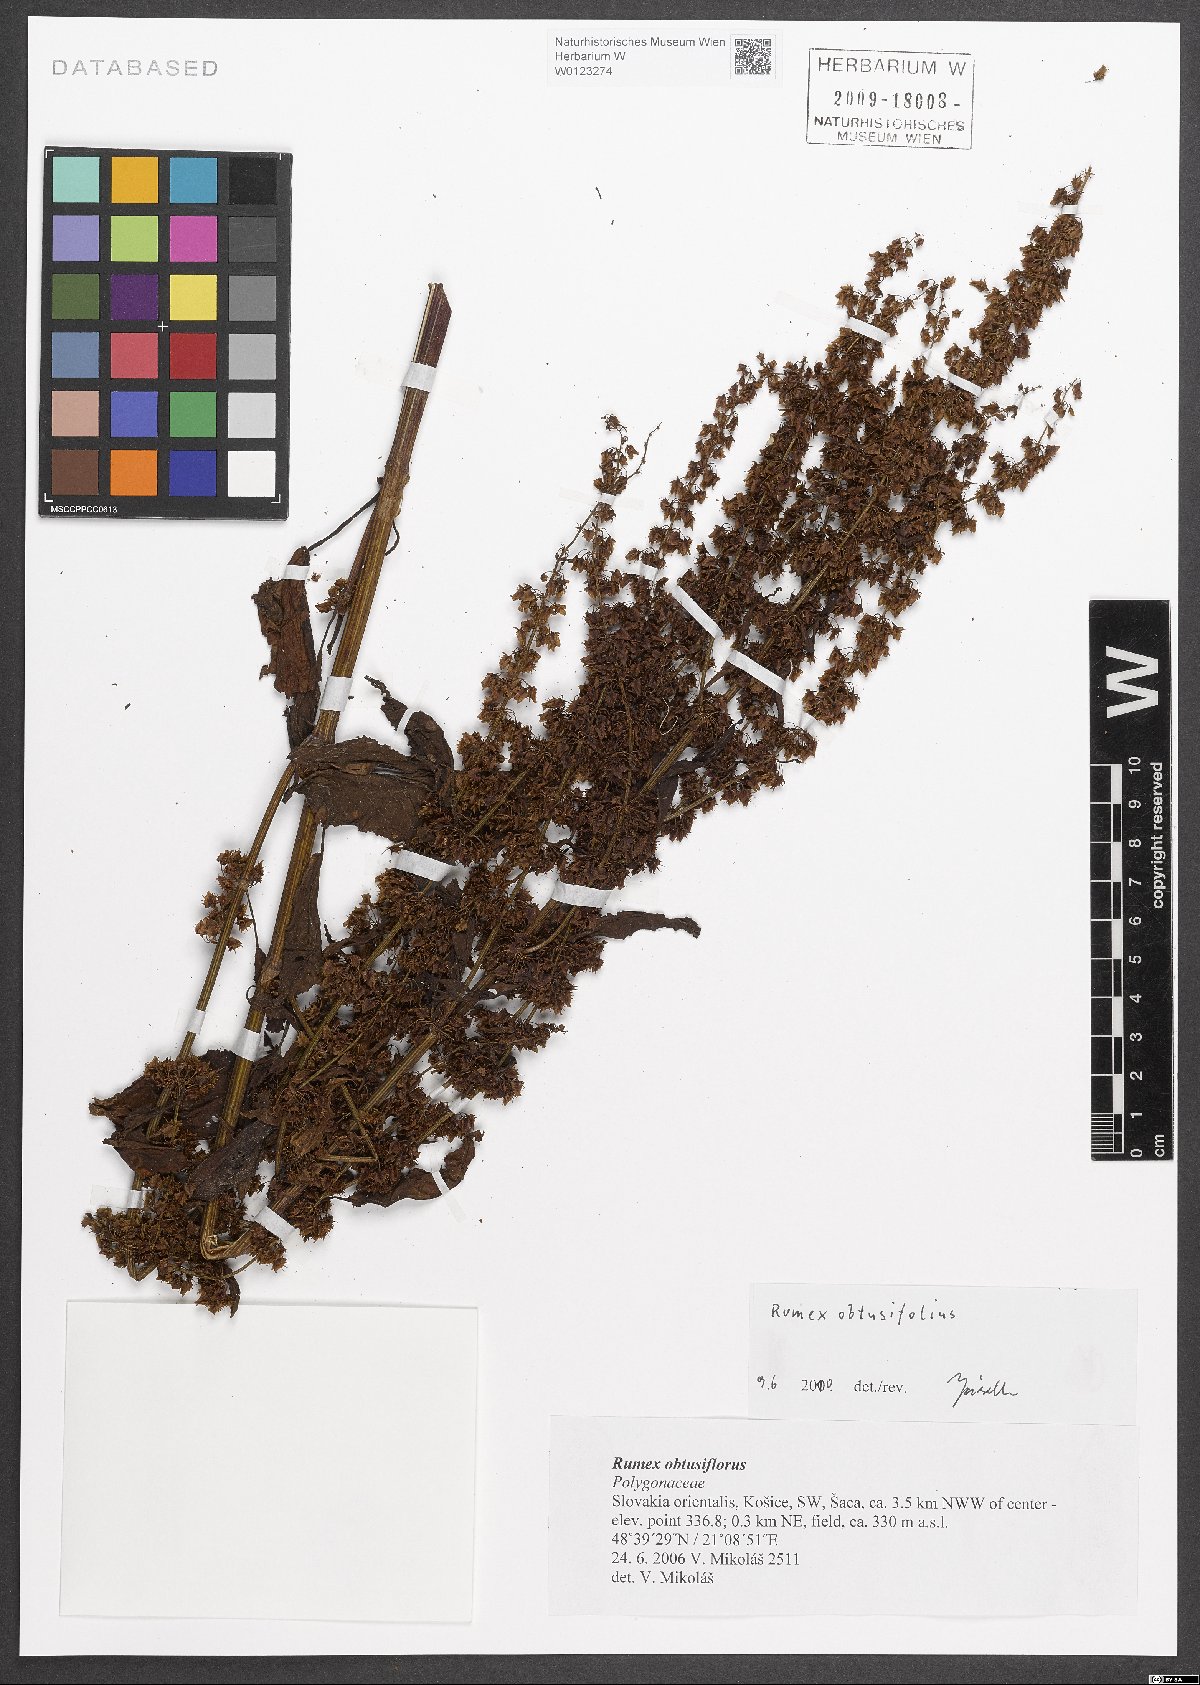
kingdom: Plantae
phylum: Tracheophyta
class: Magnoliopsida
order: Caryophyllales
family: Polygonaceae
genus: Rumex
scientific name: Rumex obtusifolius
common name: Bitter dock
